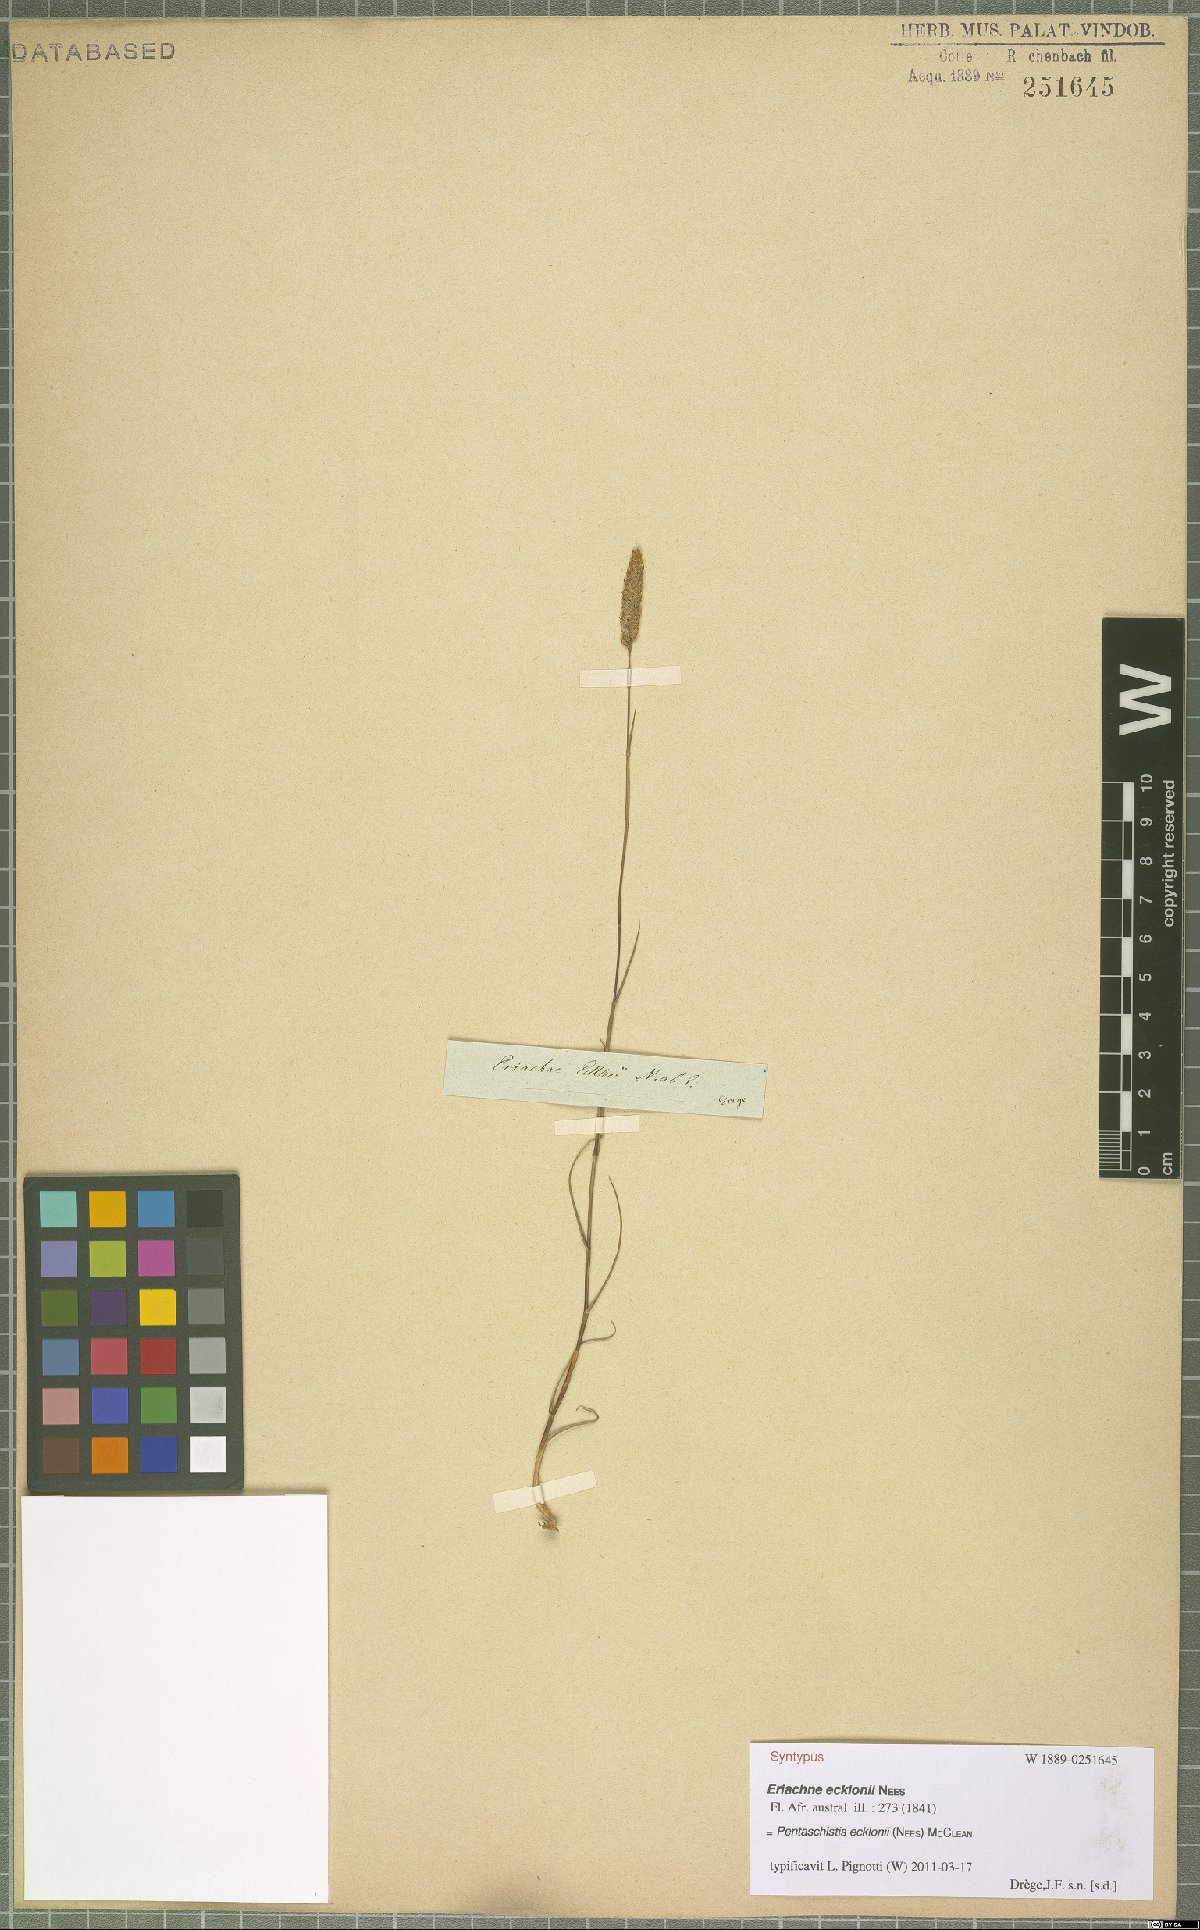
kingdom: Plantae
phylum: Tracheophyta
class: Liliopsida
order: Poales
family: Poaceae
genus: Pentameris
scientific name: Pentameris ecklonii
